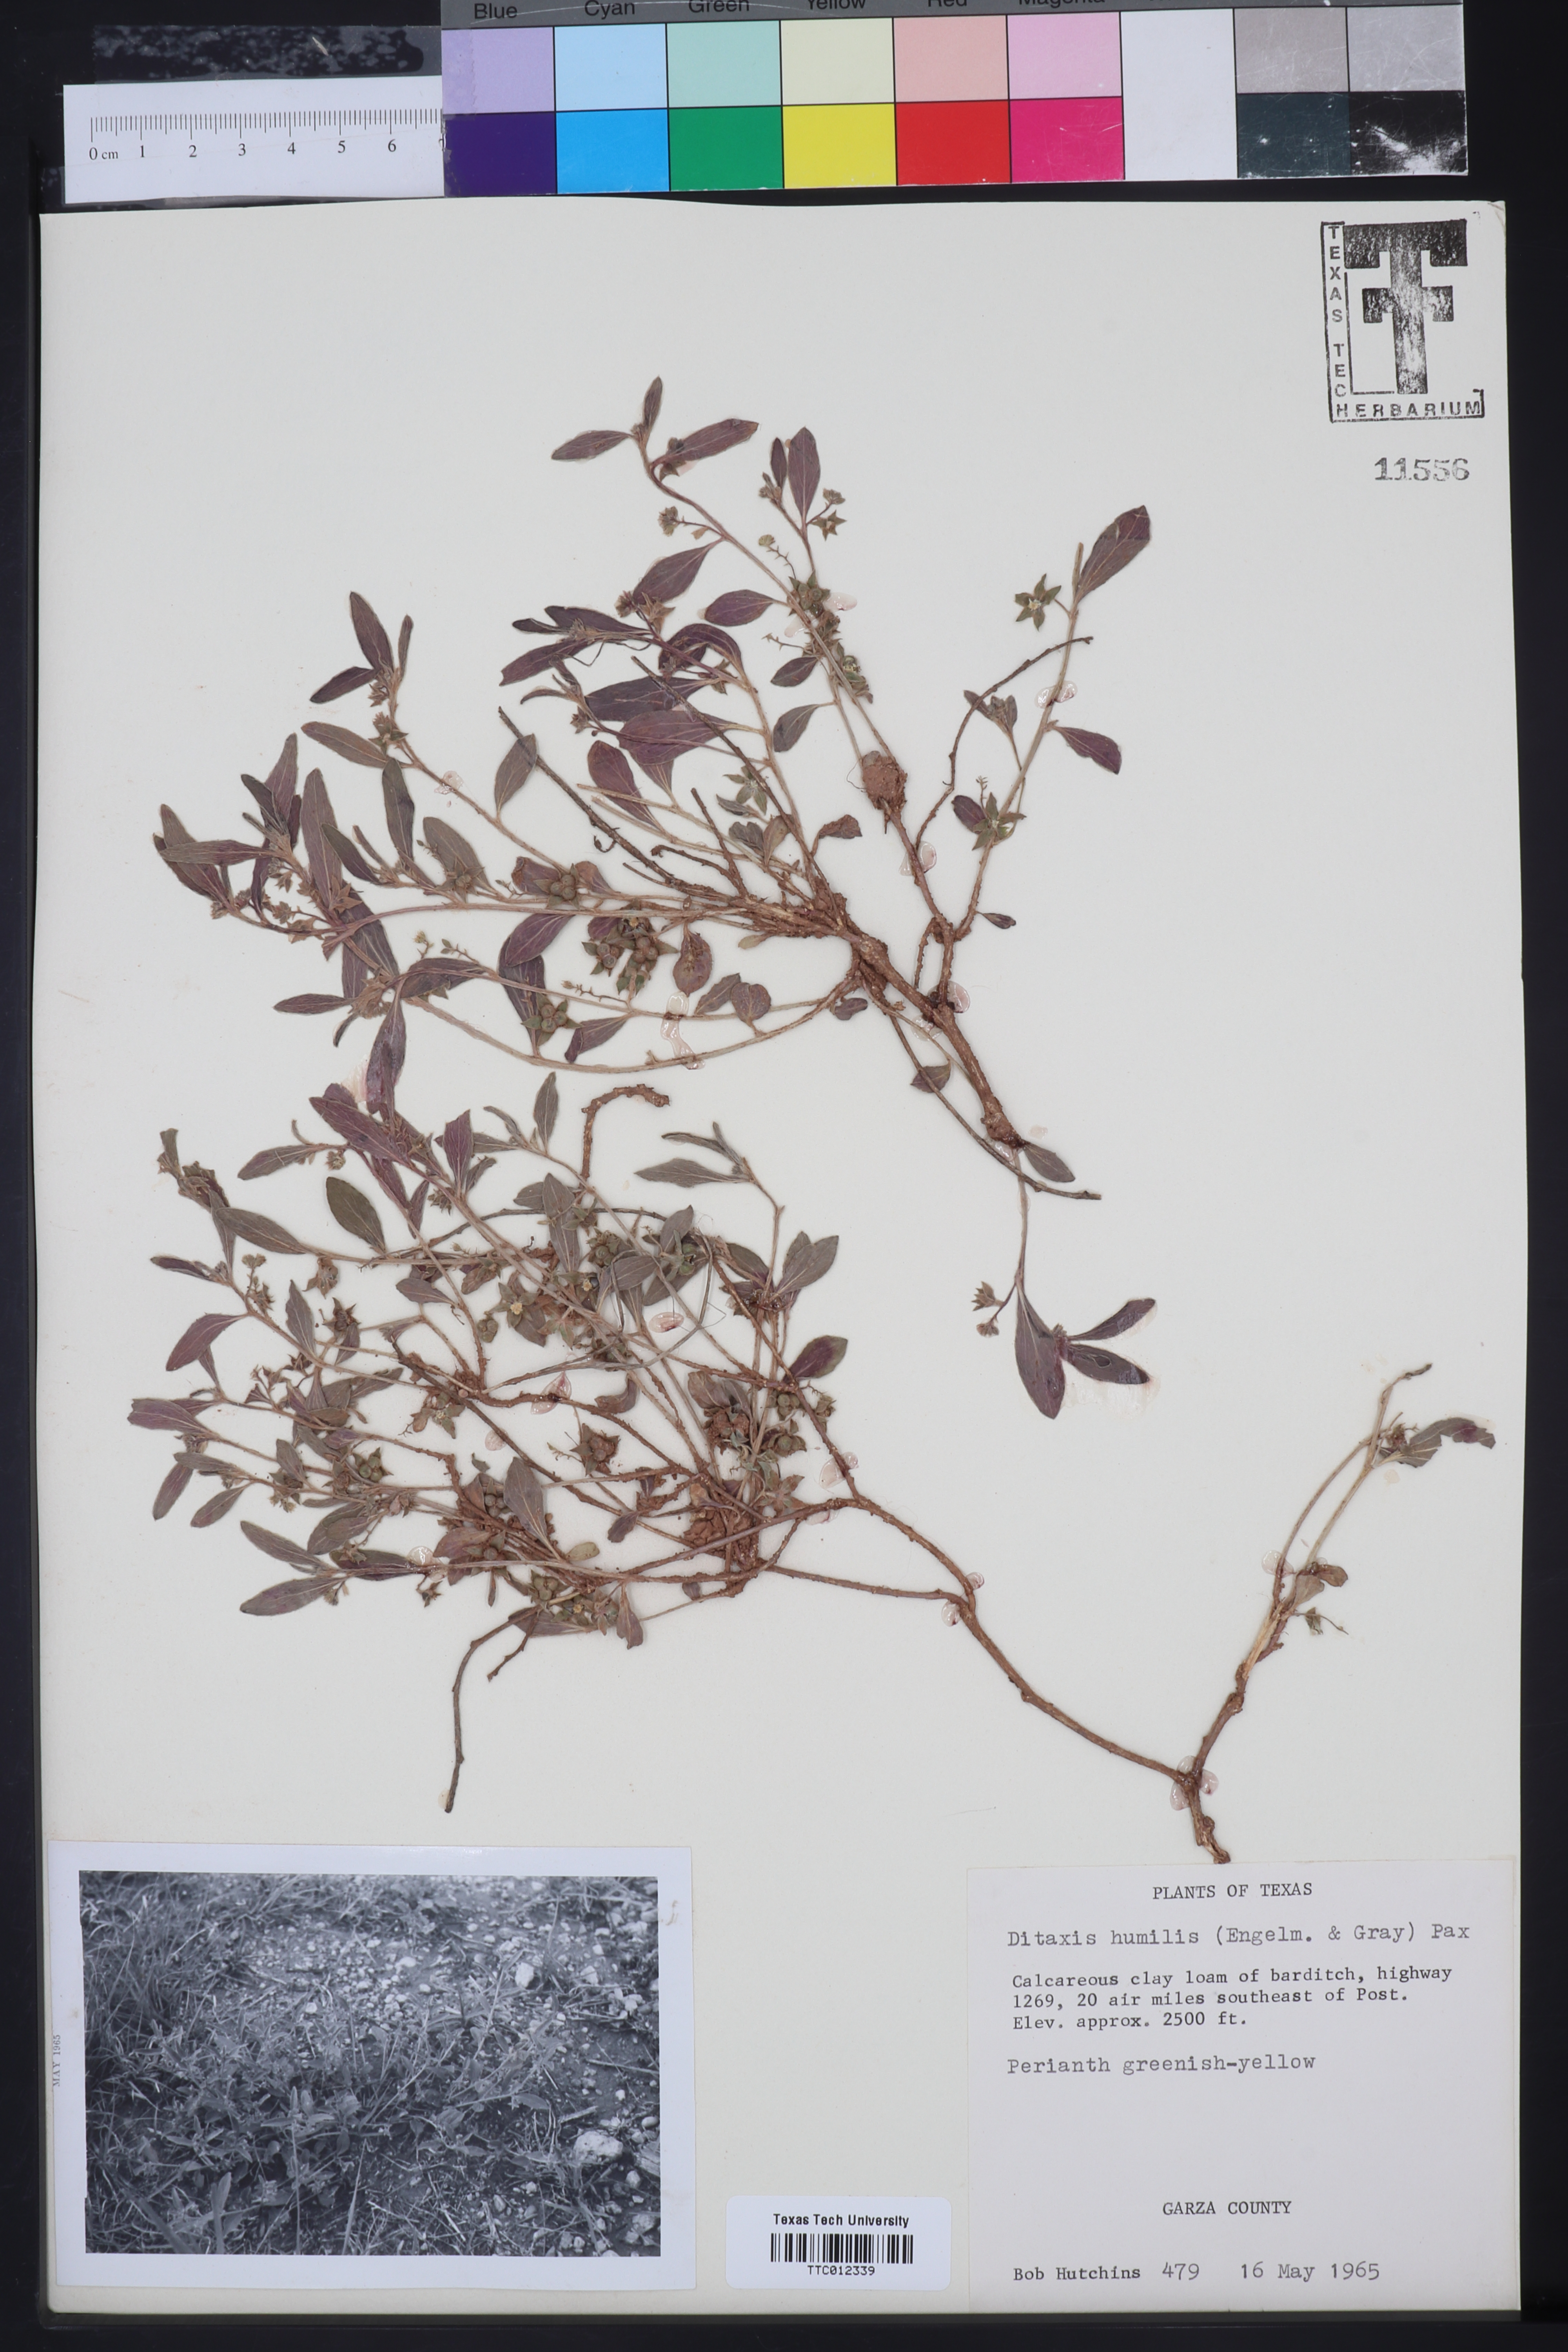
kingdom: Plantae
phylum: Tracheophyta
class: Magnoliopsida
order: Malpighiales
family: Euphorbiaceae
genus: Ditaxis
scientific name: Ditaxis humilis
